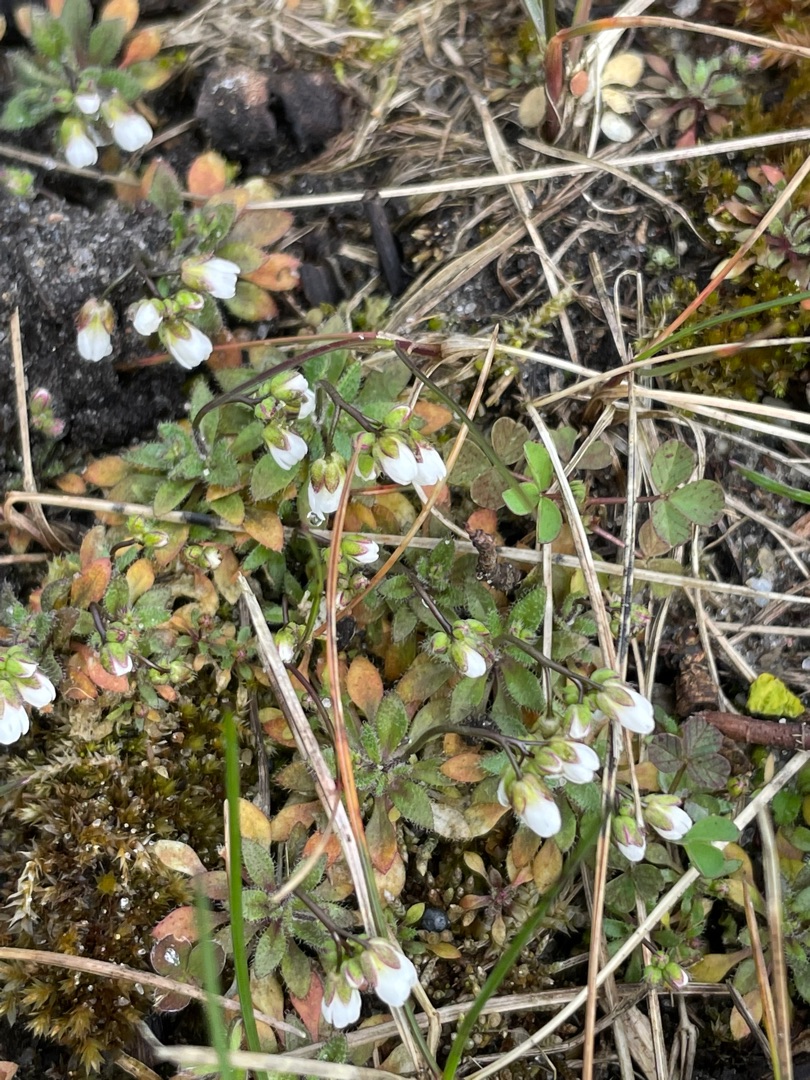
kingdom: Plantae
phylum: Tracheophyta
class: Magnoliopsida
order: Brassicales
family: Brassicaceae
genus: Draba
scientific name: Draba verna
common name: Vår-gæslingeblomst
